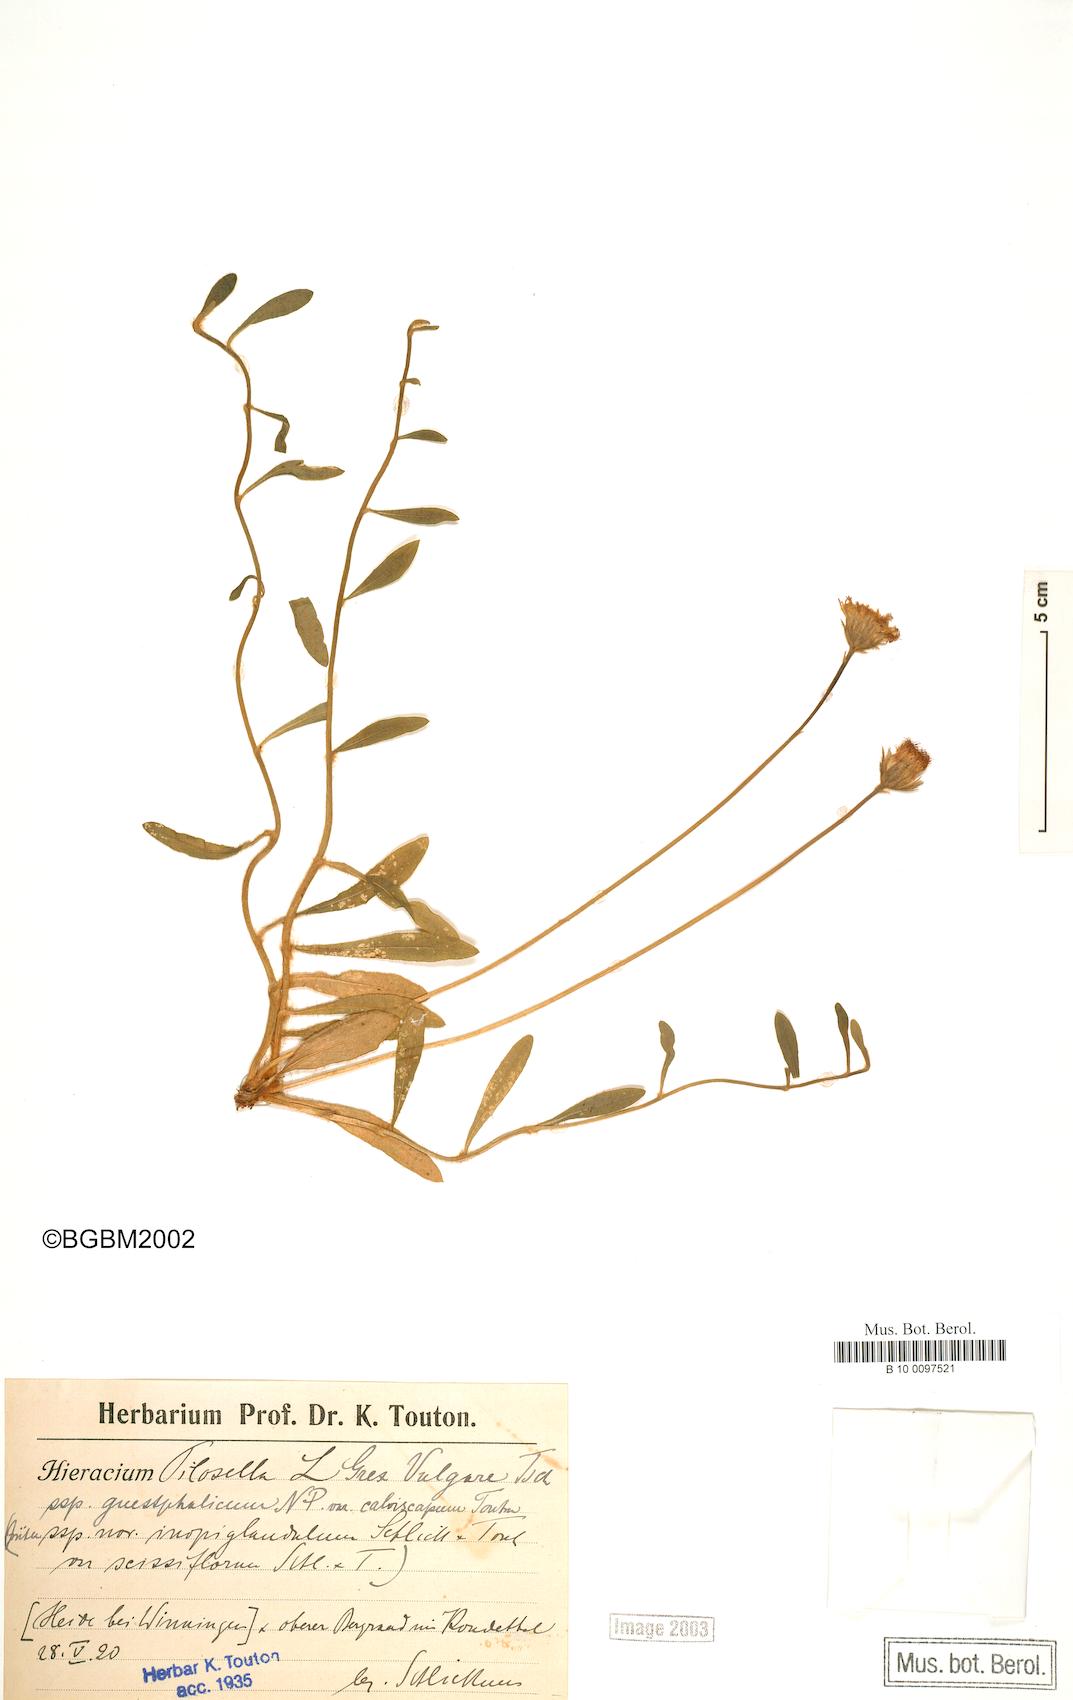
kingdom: Plantae
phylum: Tracheophyta
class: Magnoliopsida
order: Asterales
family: Asteraceae
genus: Pilosella
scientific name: Pilosella officinarum
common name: Mouse-ear hawkweed
